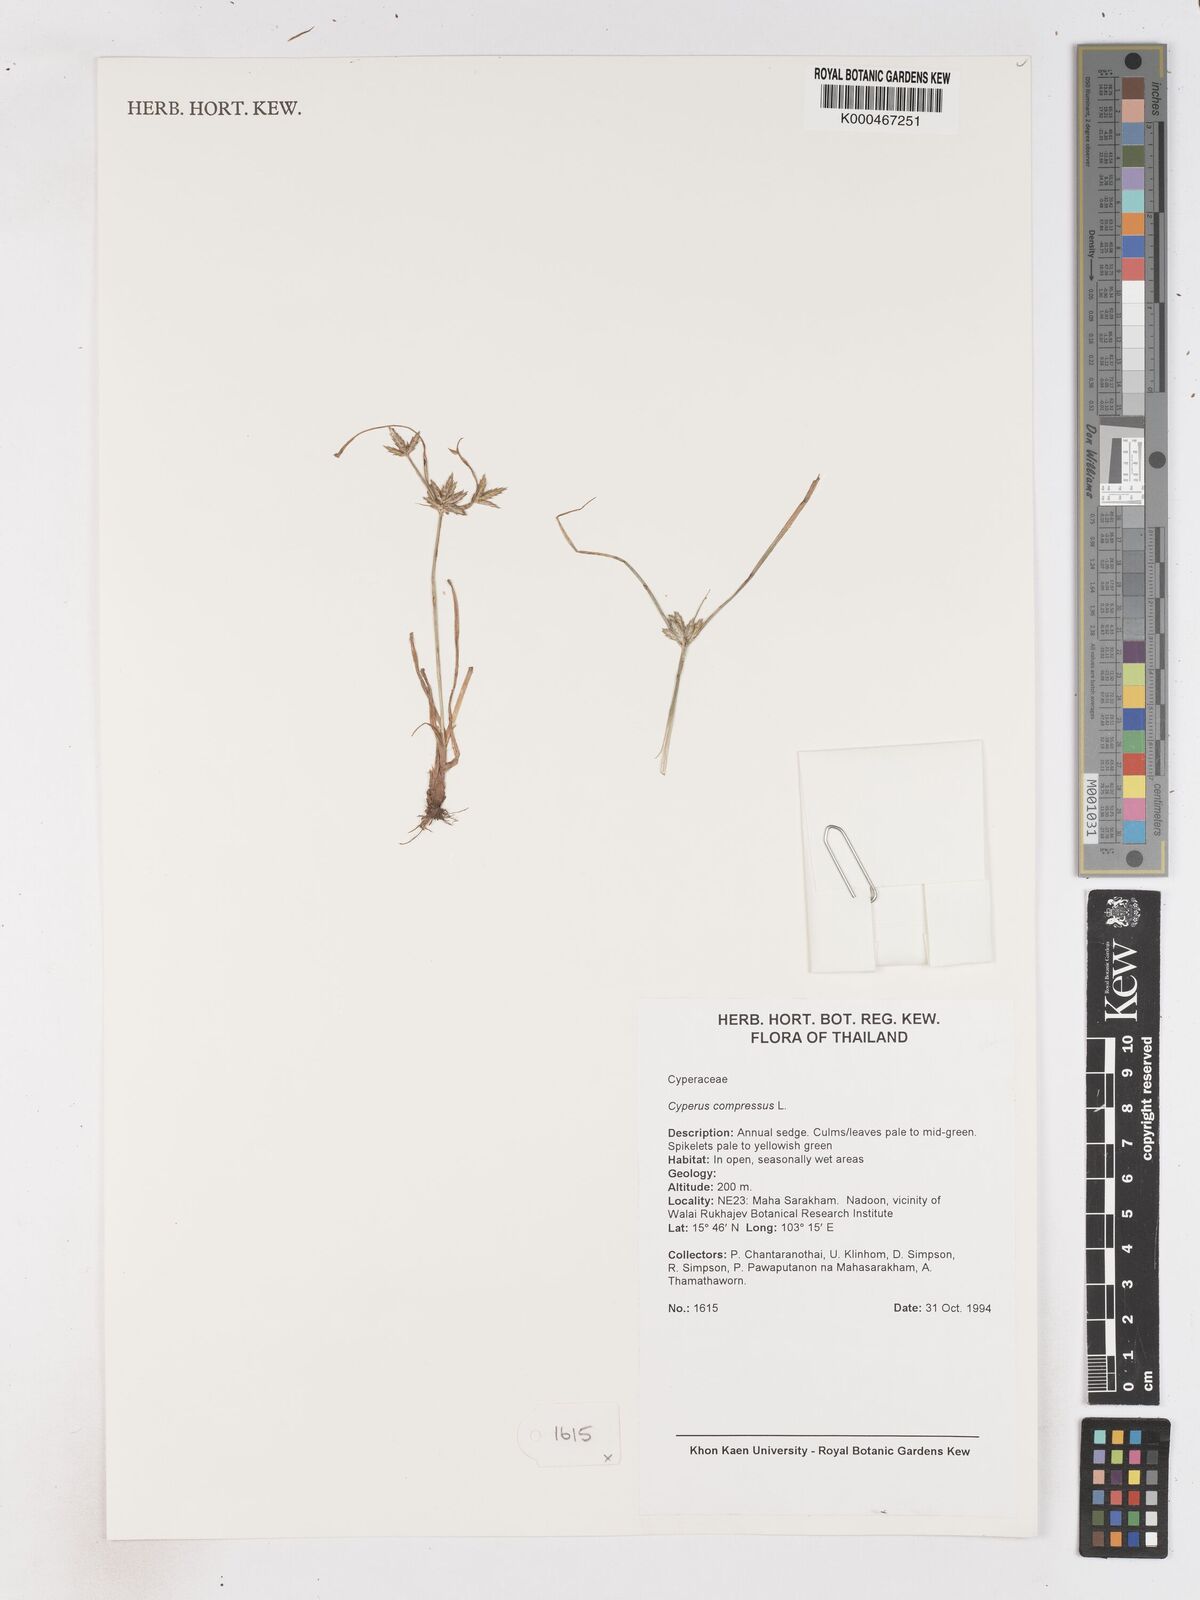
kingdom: Plantae
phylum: Tracheophyta
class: Liliopsida
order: Poales
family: Cyperaceae
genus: Cyperus
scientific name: Cyperus compressus
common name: Poorland flatsedge
